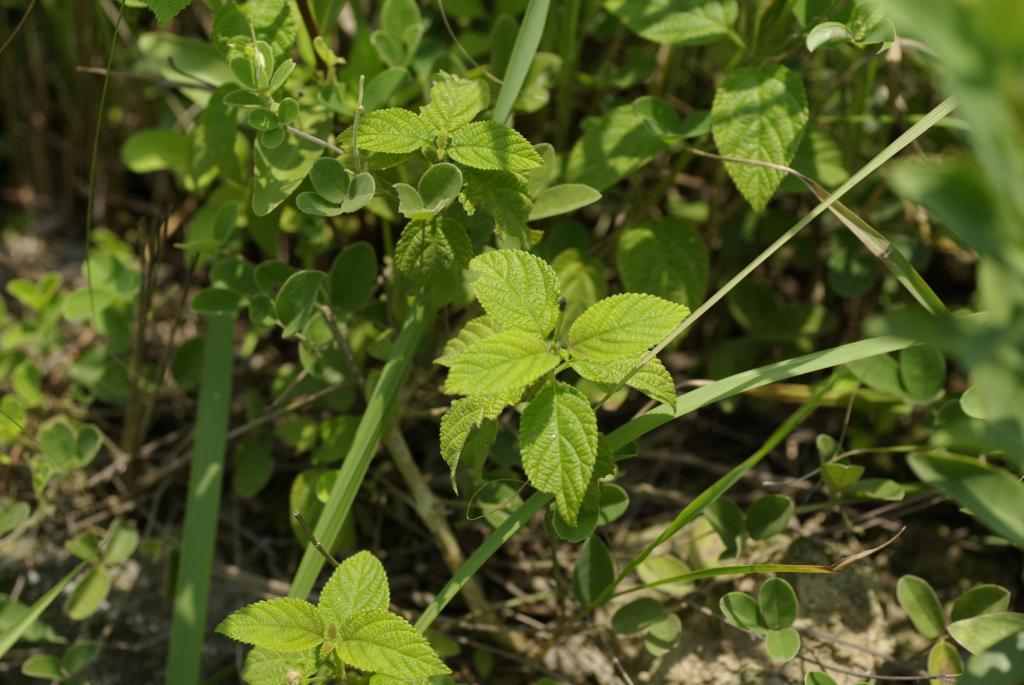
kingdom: Plantae
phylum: Tracheophyta
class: Magnoliopsida
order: Lamiales
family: Verbenaceae
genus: Lantana
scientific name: Lantana camara
